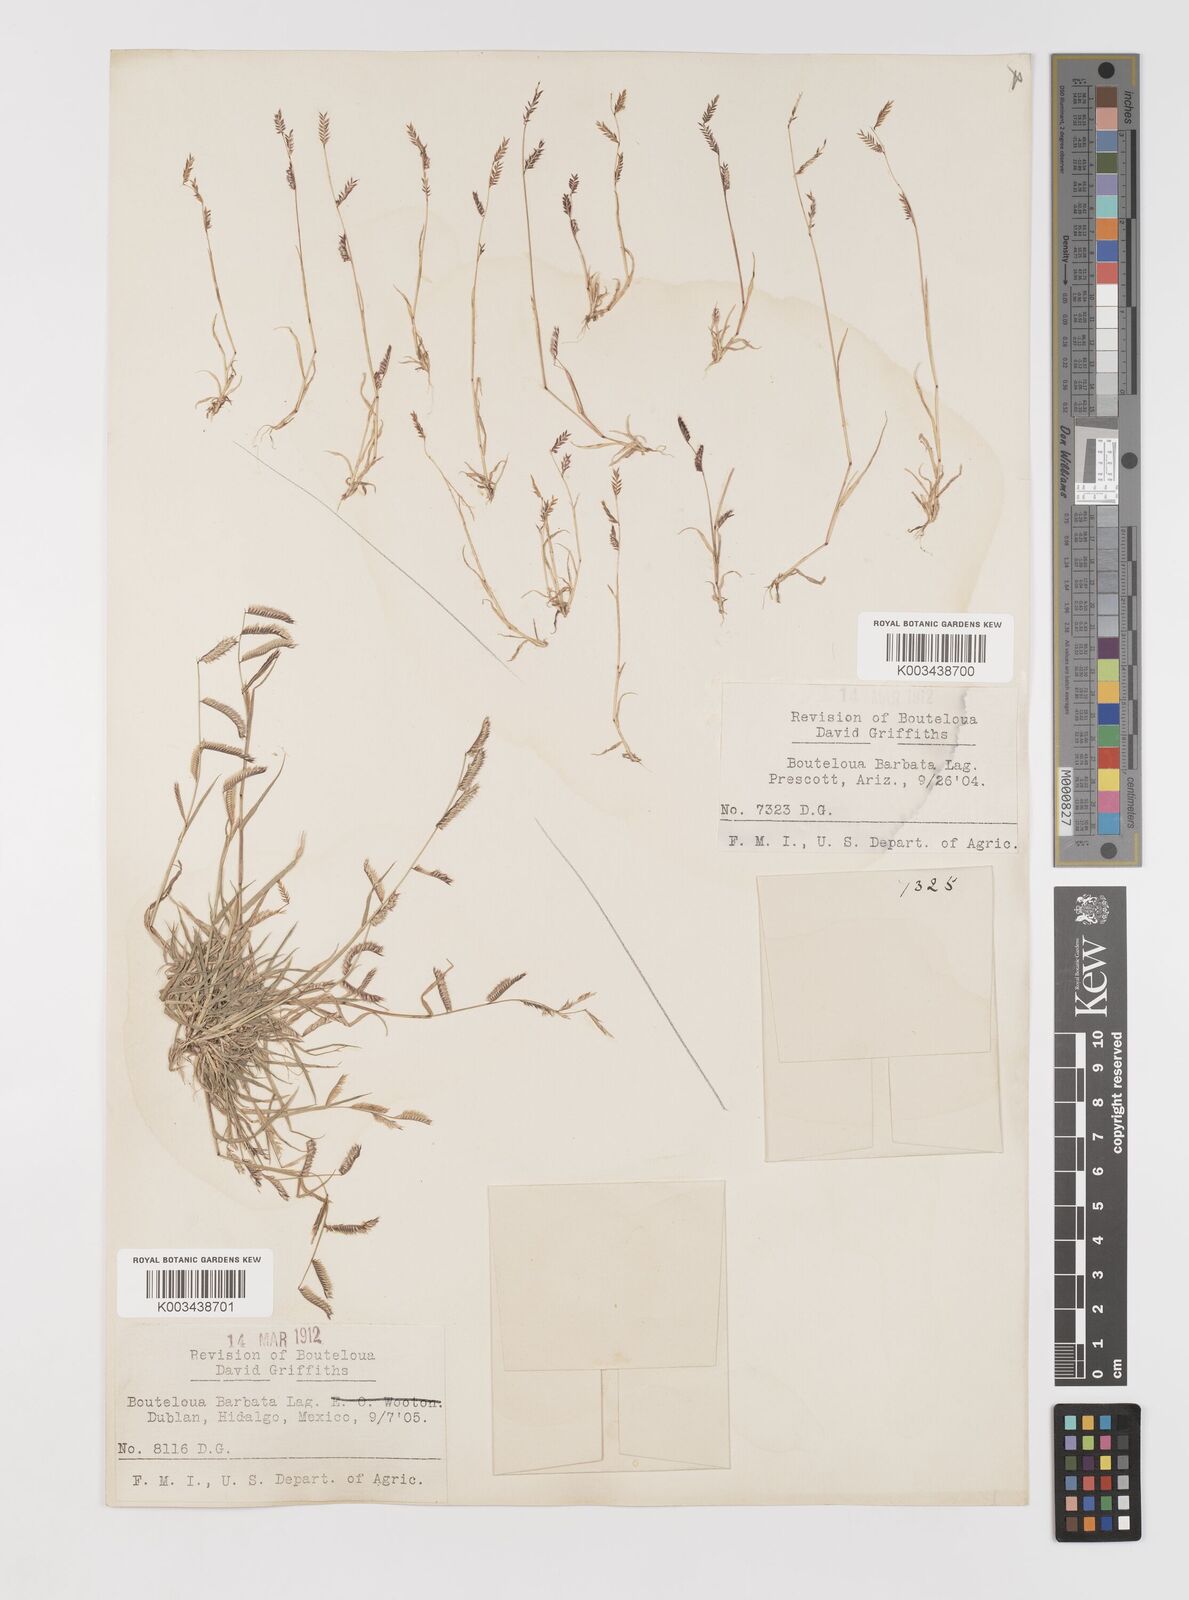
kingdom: Plantae
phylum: Tracheophyta
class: Liliopsida
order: Poales
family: Poaceae
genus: Bouteloua
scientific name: Bouteloua
